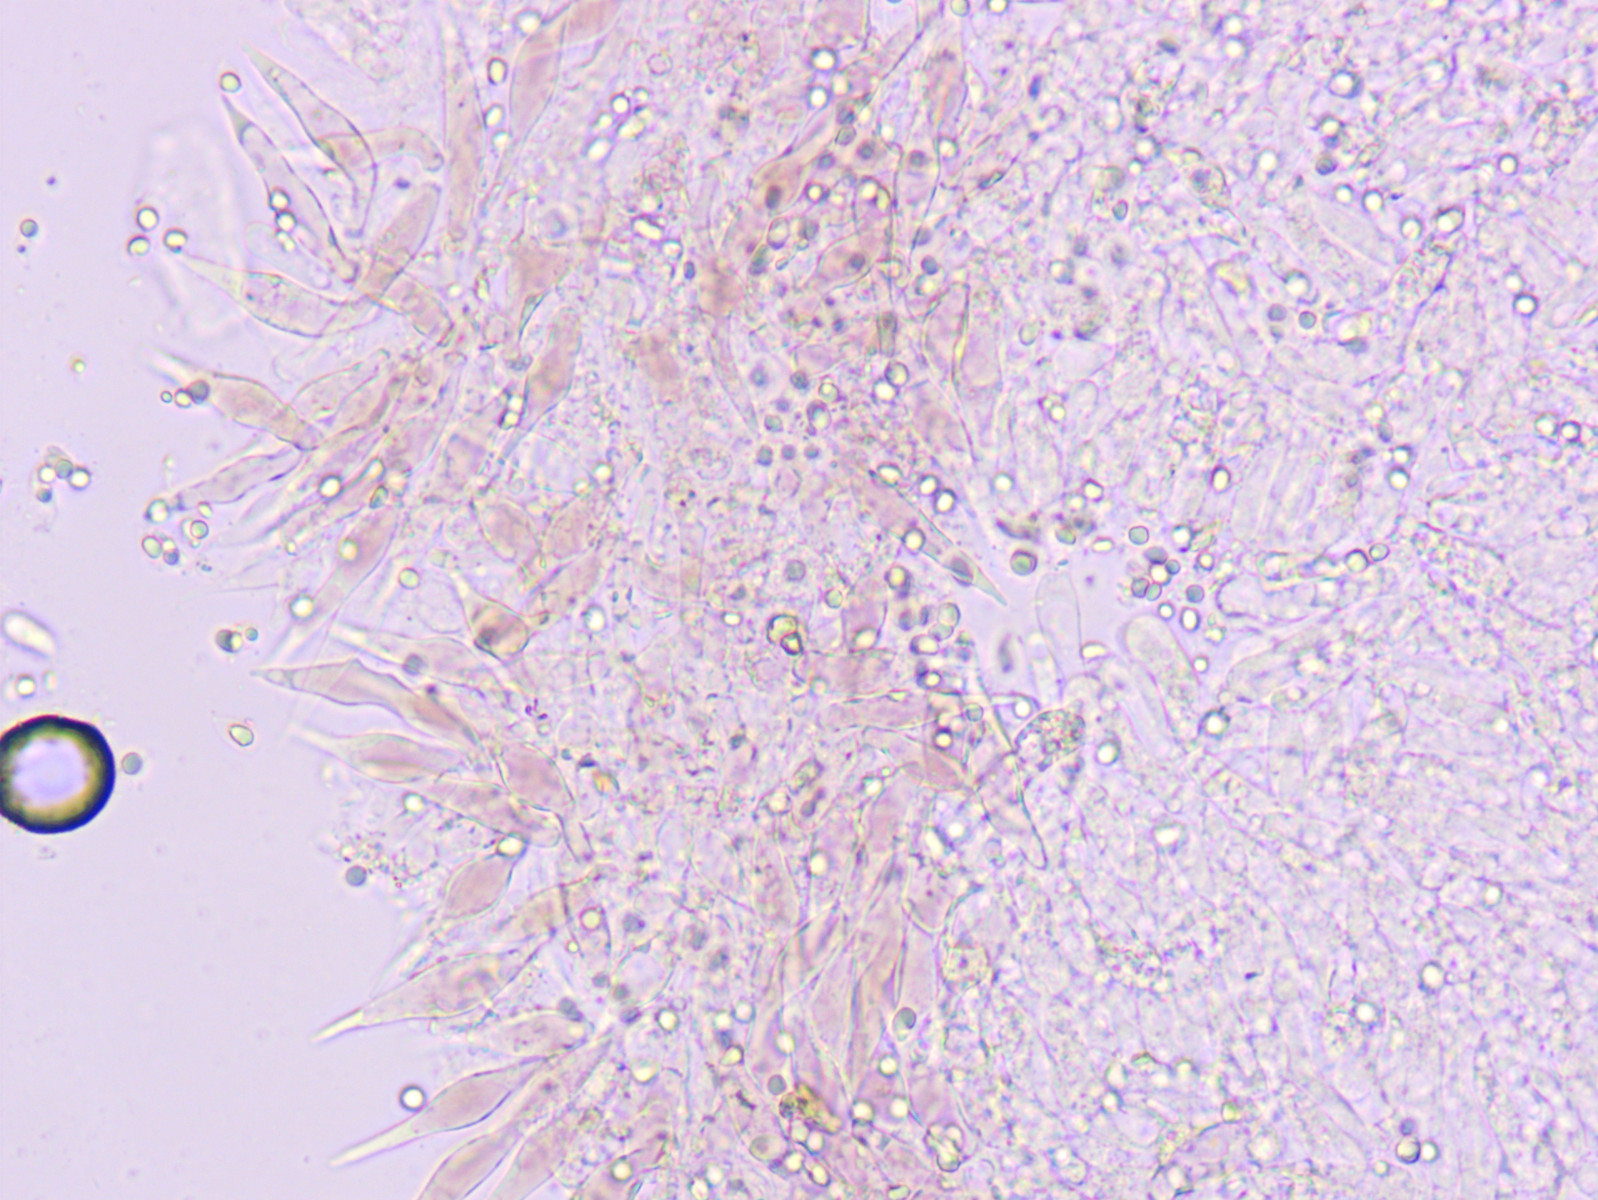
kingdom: Fungi
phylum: Basidiomycota
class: Agaricomycetes
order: Agaricales
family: Mycenaceae
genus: Mycena
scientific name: Mycena sanguinolenta
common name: rødmælket huesvamp
